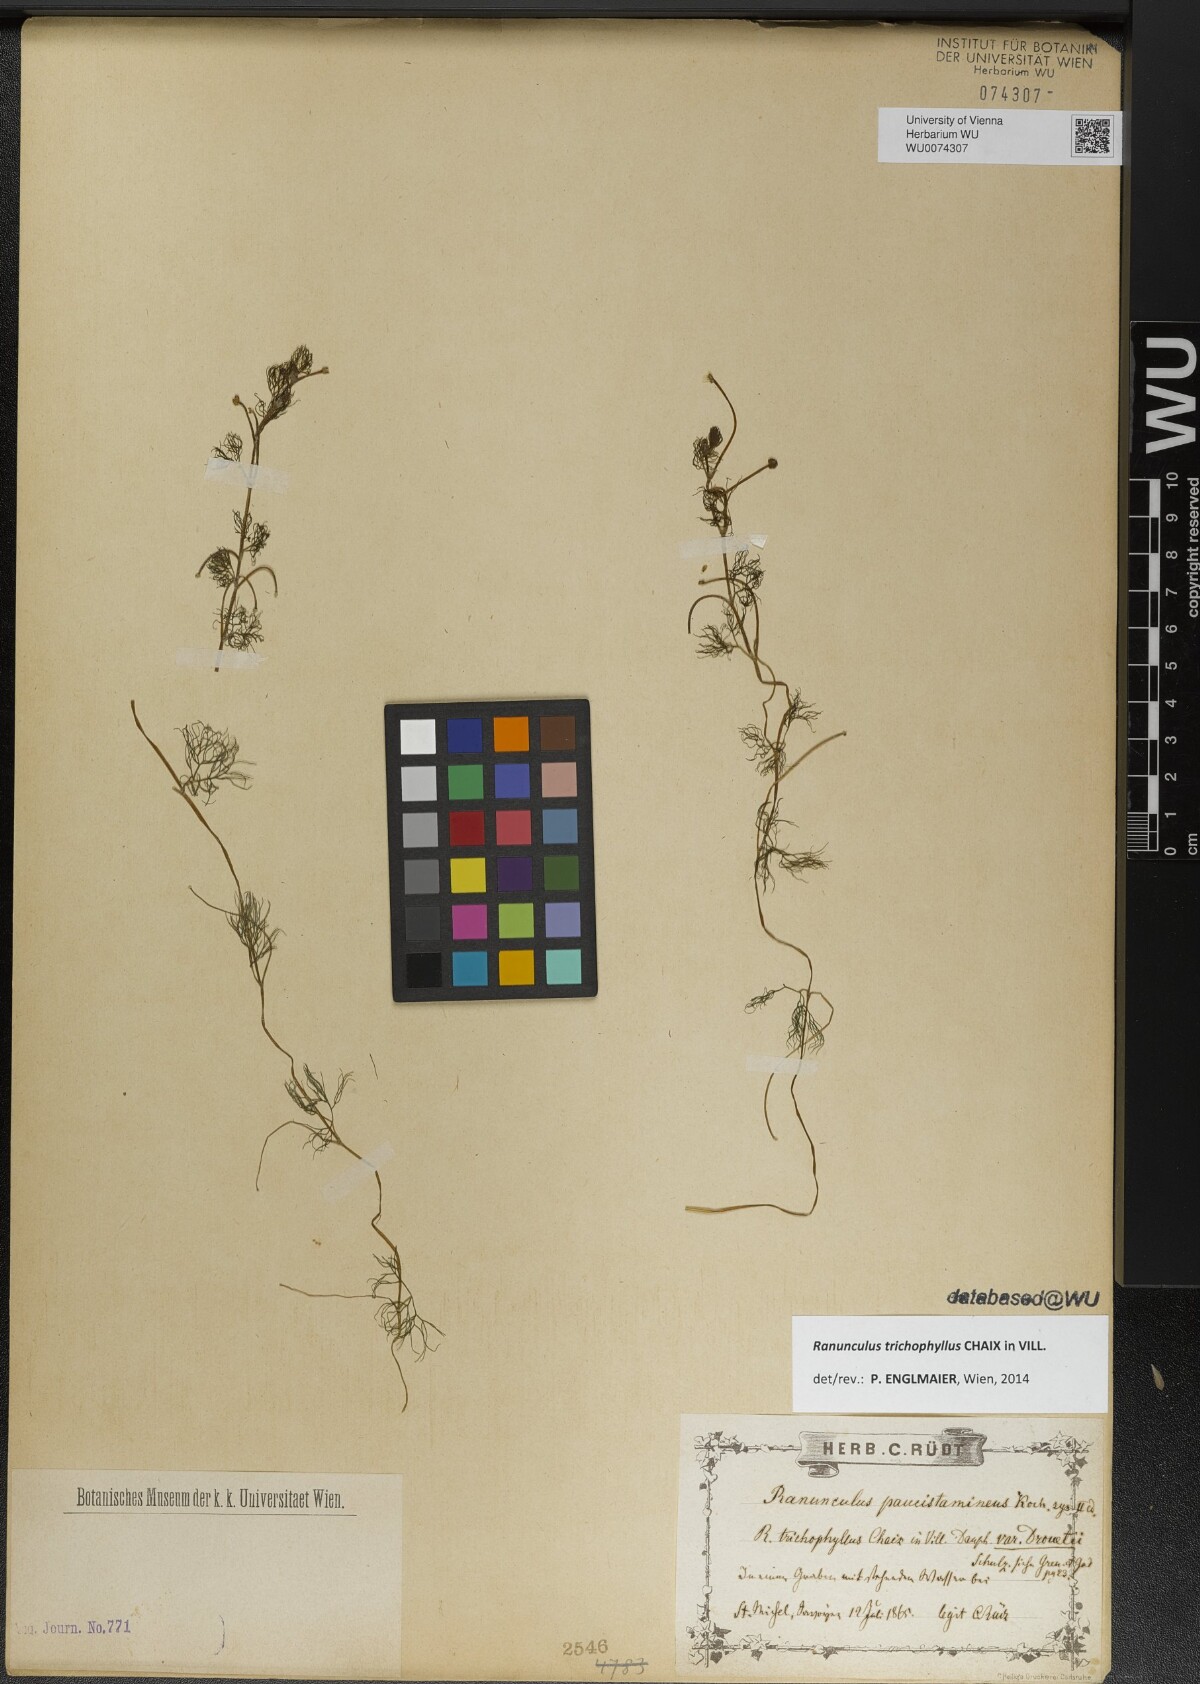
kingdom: Plantae
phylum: Tracheophyta
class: Magnoliopsida
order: Ranunculales
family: Ranunculaceae
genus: Ranunculus
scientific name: Ranunculus trichophyllus
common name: Thread-leaved water-crowfoot
